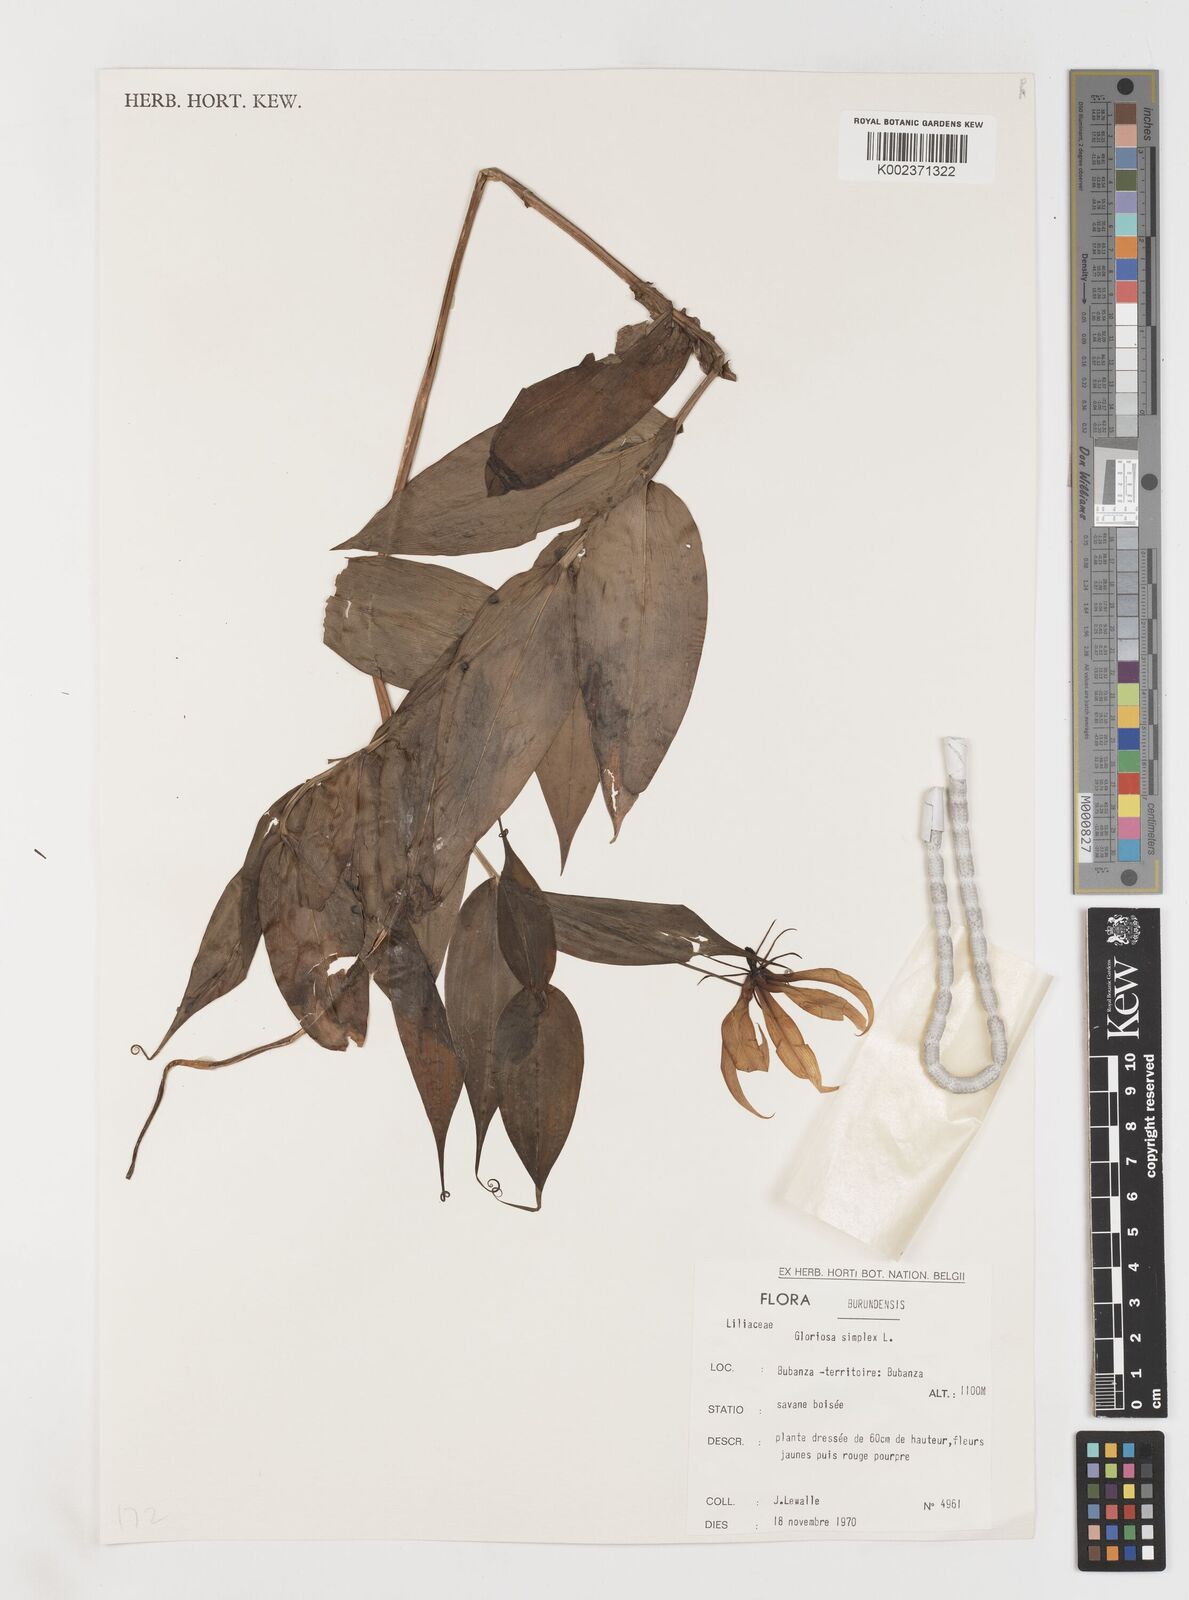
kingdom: Plantae
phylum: Tracheophyta
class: Liliopsida
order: Liliales
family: Colchicaceae
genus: Gloriosa
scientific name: Gloriosa simplex
